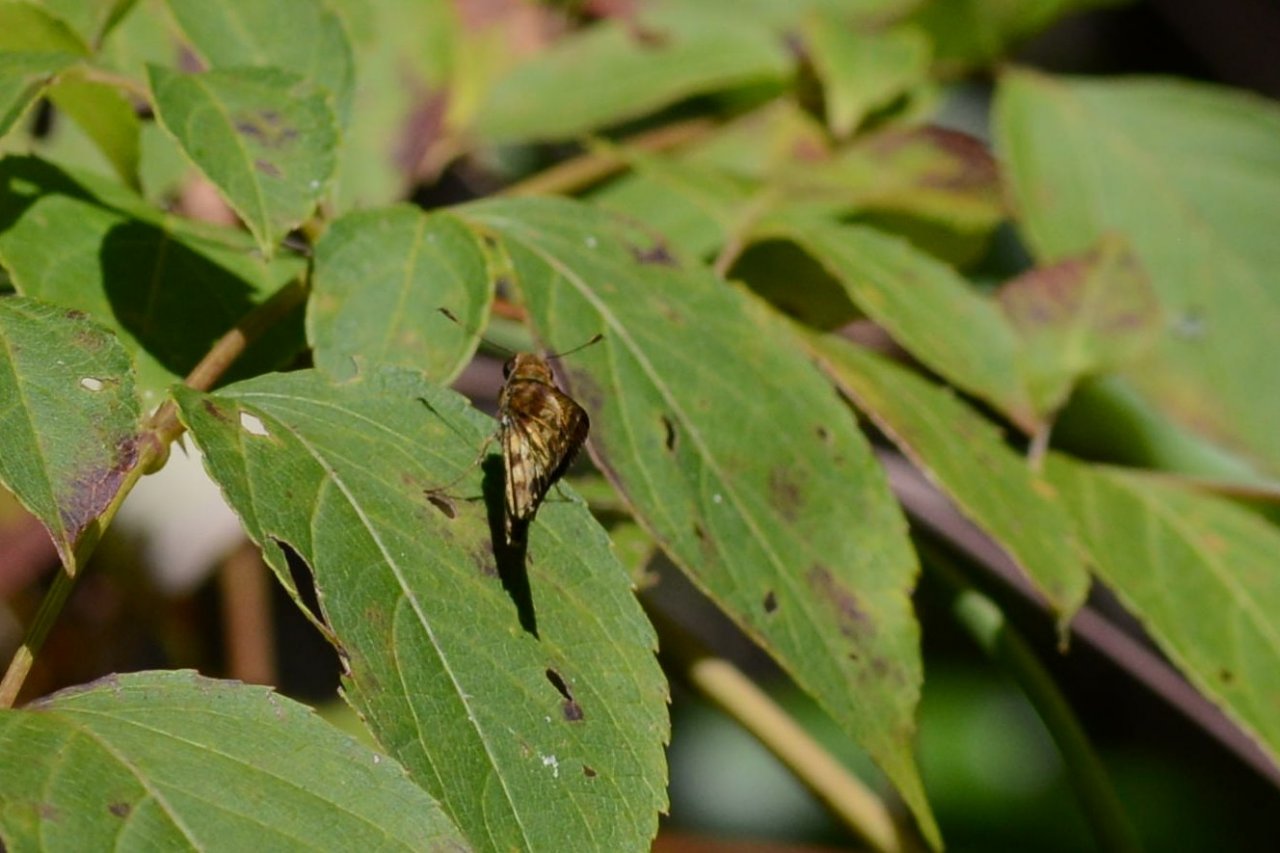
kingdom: Animalia
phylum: Arthropoda
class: Insecta
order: Lepidoptera
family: Hesperiidae
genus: Lon
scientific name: Lon zabulon
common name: Zabulon Skipper
